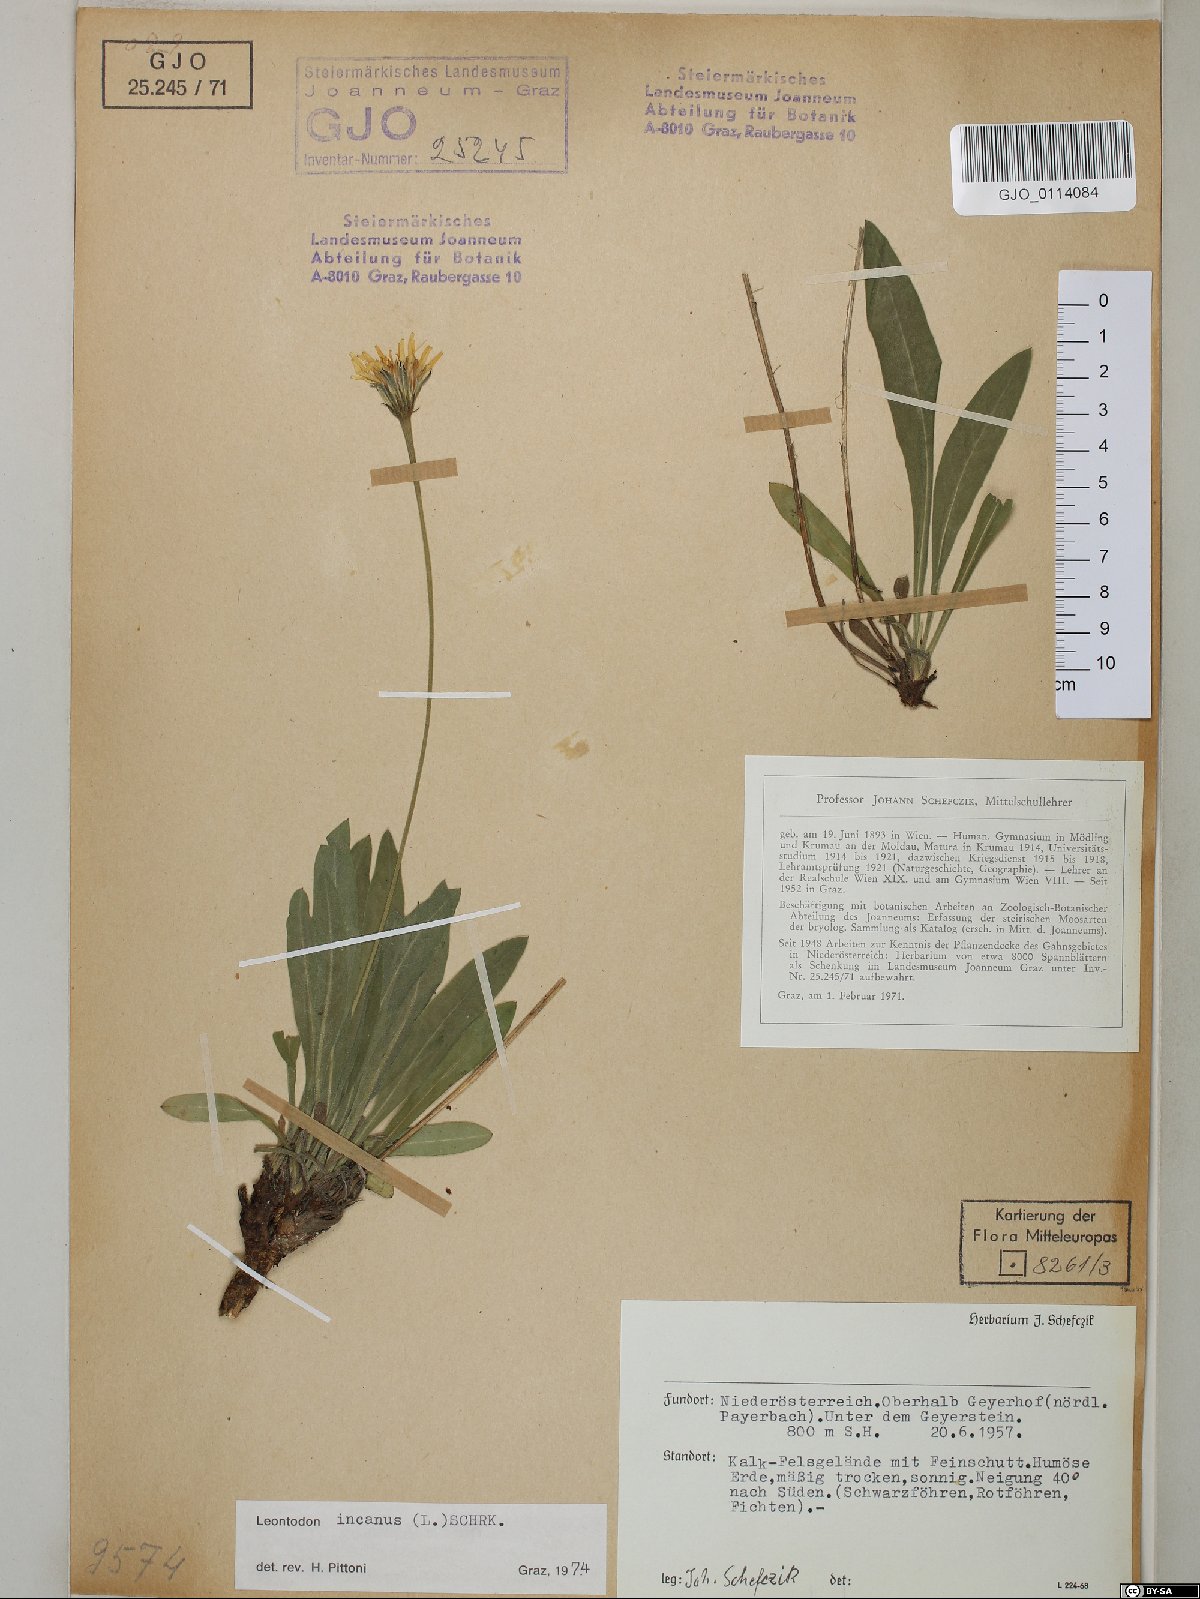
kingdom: Plantae
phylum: Tracheophyta
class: Magnoliopsida
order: Asterales
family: Asteraceae
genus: Leontodon
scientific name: Leontodon incanus
